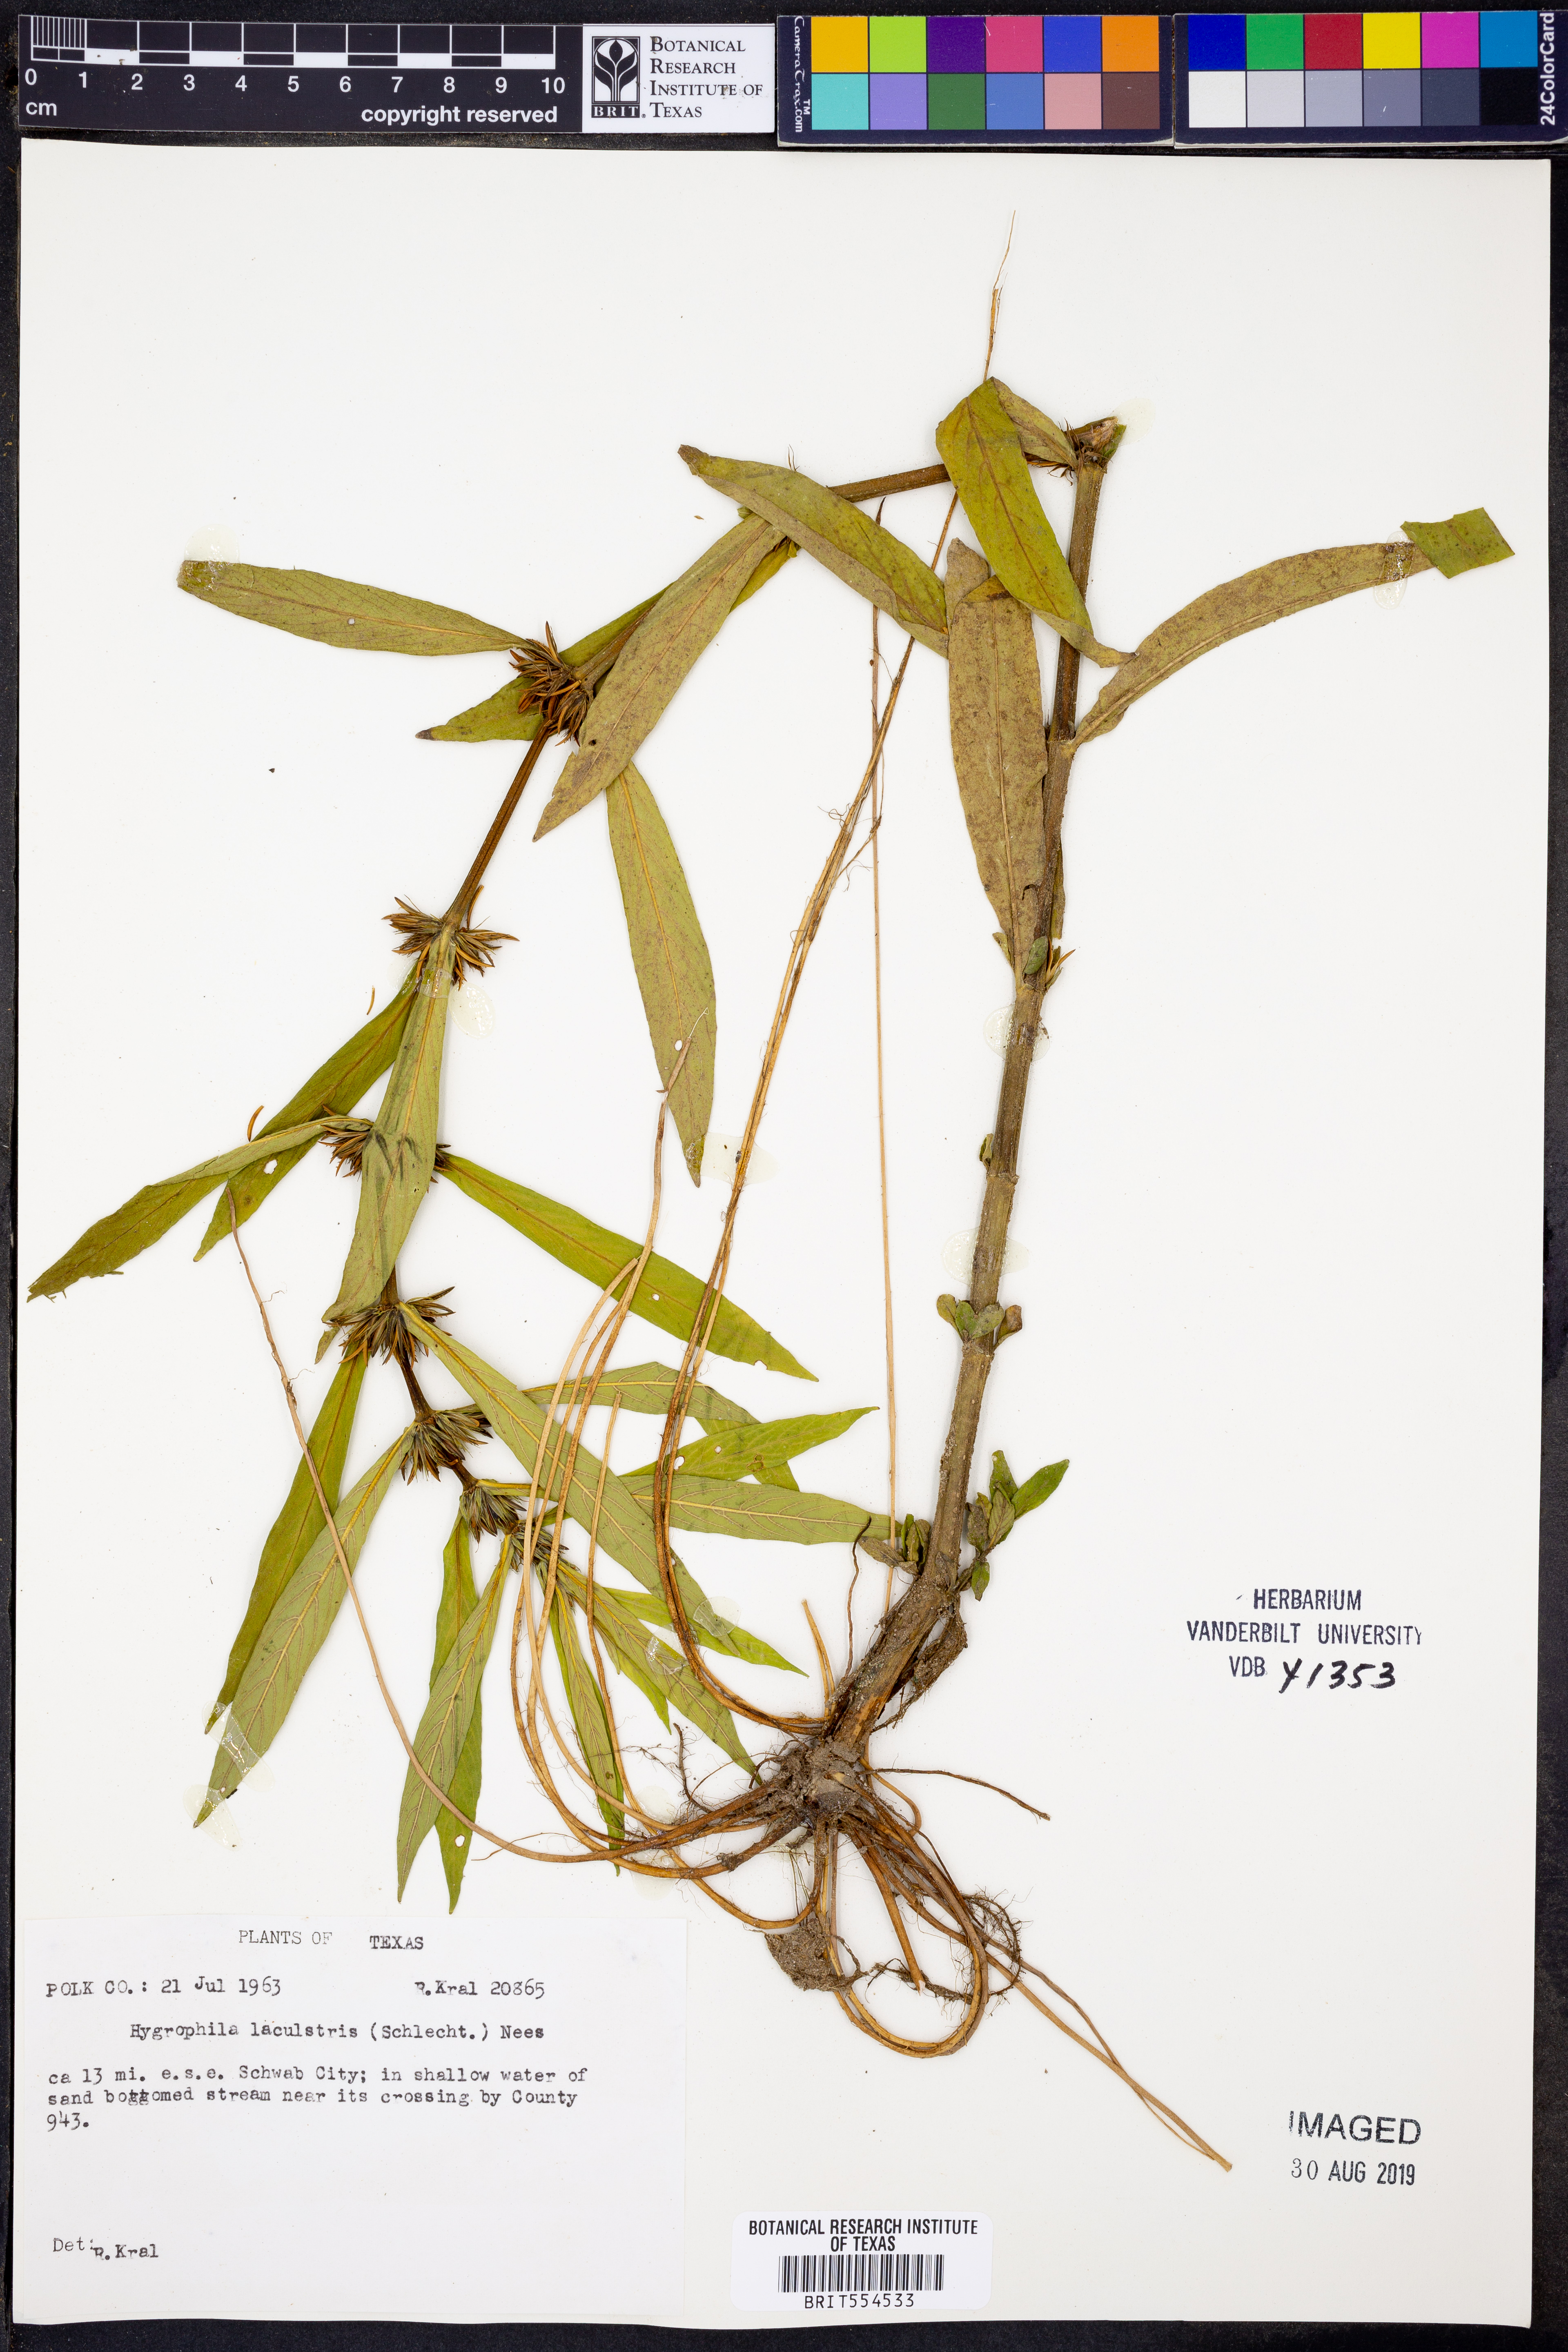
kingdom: Plantae
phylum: Tracheophyta
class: Magnoliopsida
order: Lamiales
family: Acanthaceae
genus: Hygrophila
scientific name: Hygrophila costata
